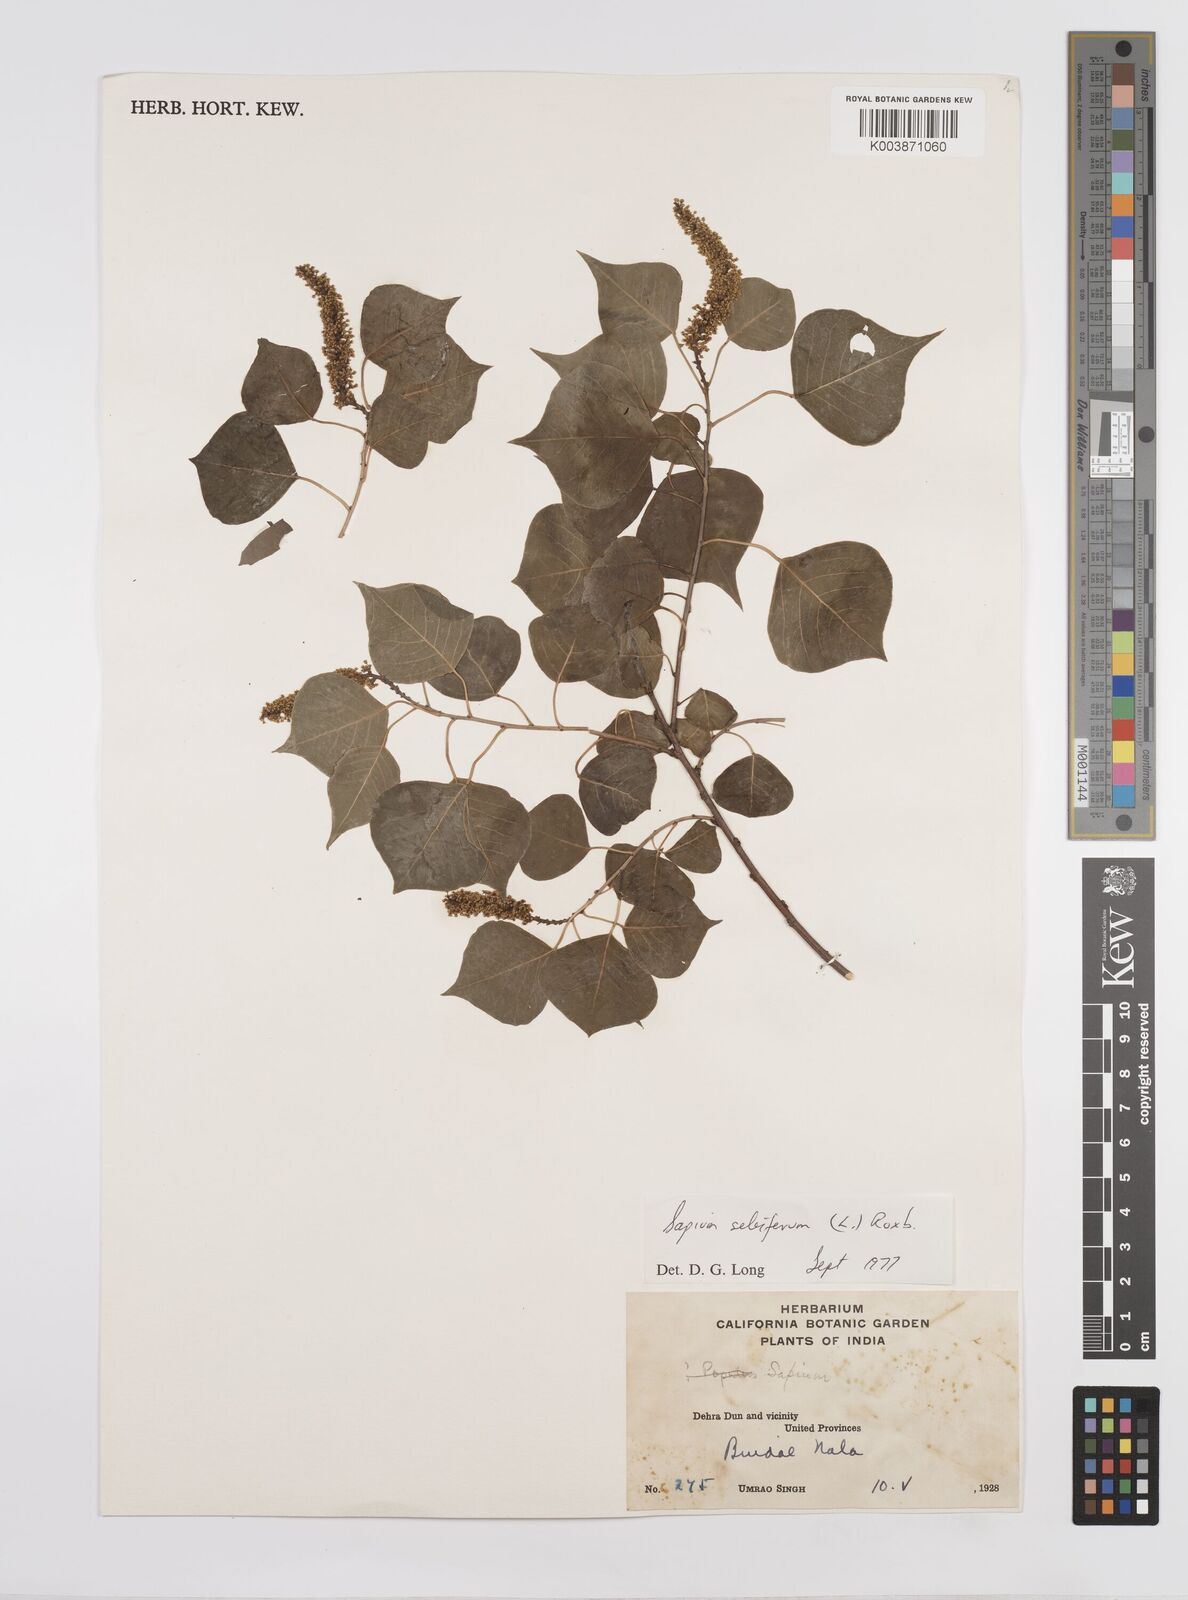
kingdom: Plantae
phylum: Tracheophyta
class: Magnoliopsida
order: Malpighiales
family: Euphorbiaceae
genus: Triadica
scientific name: Triadica sebifera
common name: Chinese tallow
